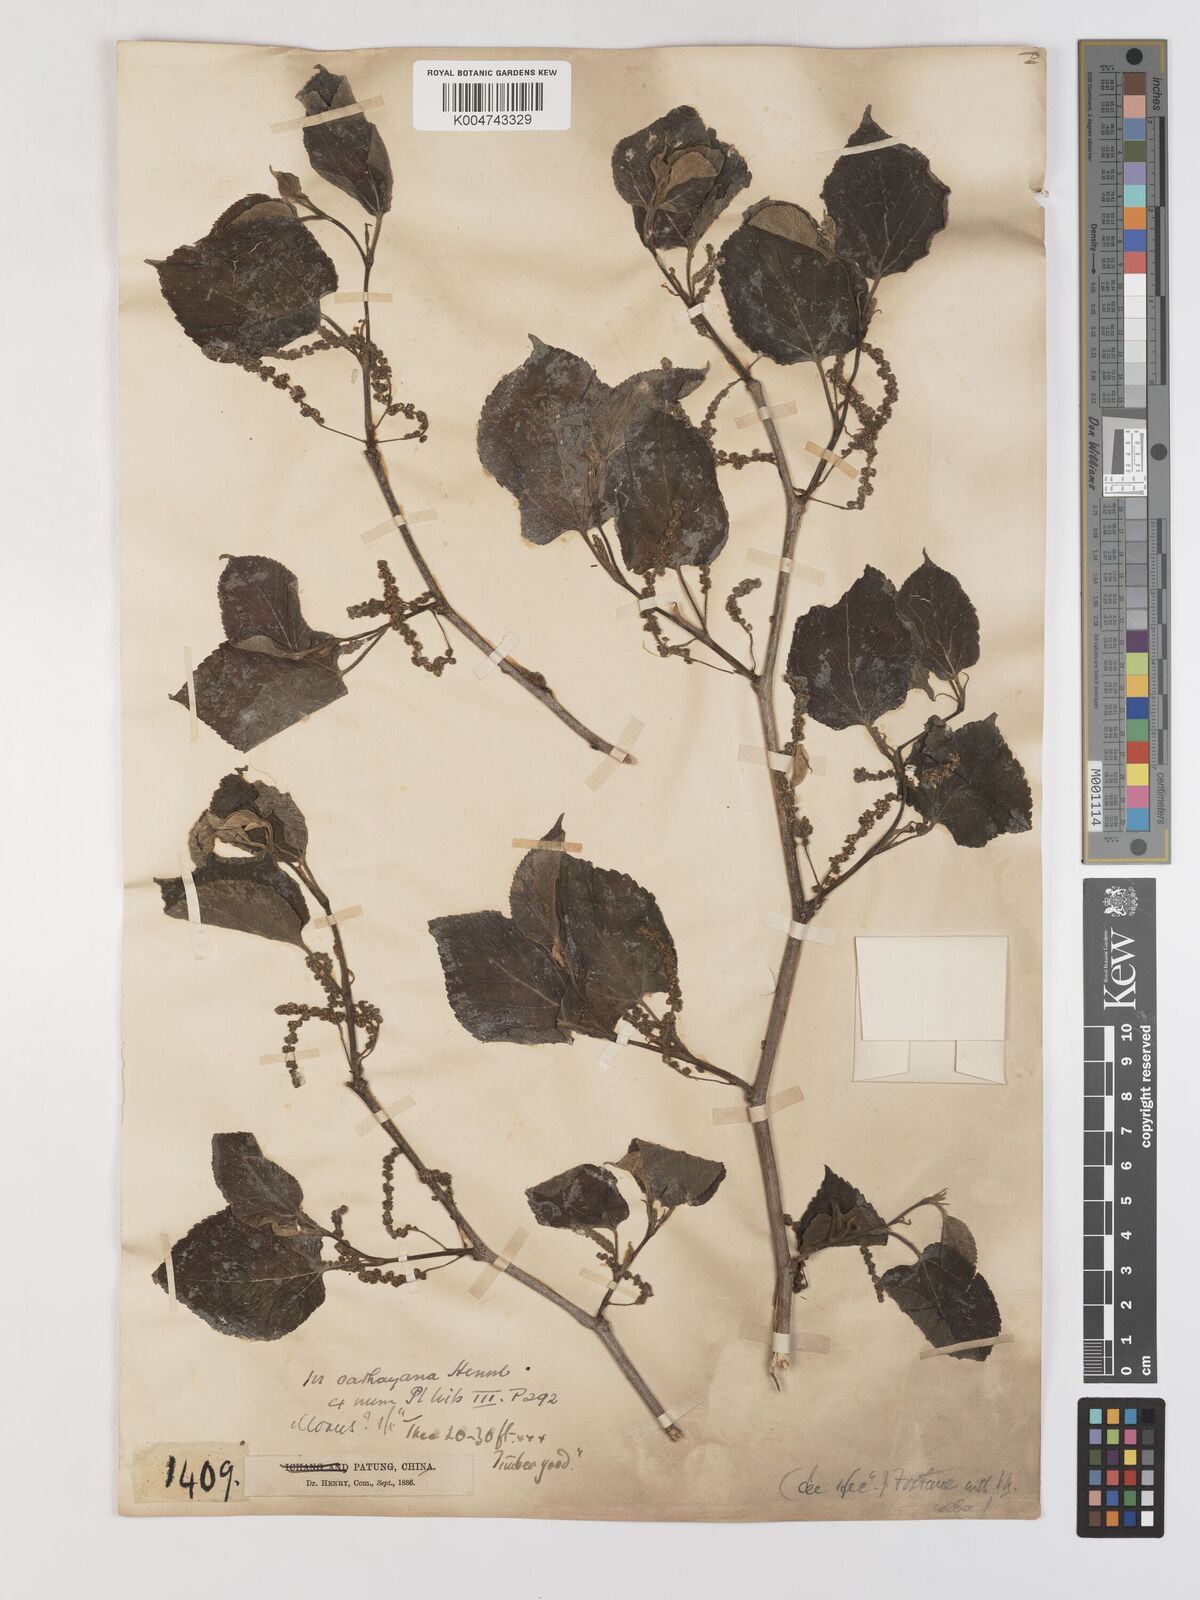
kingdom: Plantae
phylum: Tracheophyta
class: Magnoliopsida
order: Rosales
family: Moraceae
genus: Morus
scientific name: Morus cathayana
